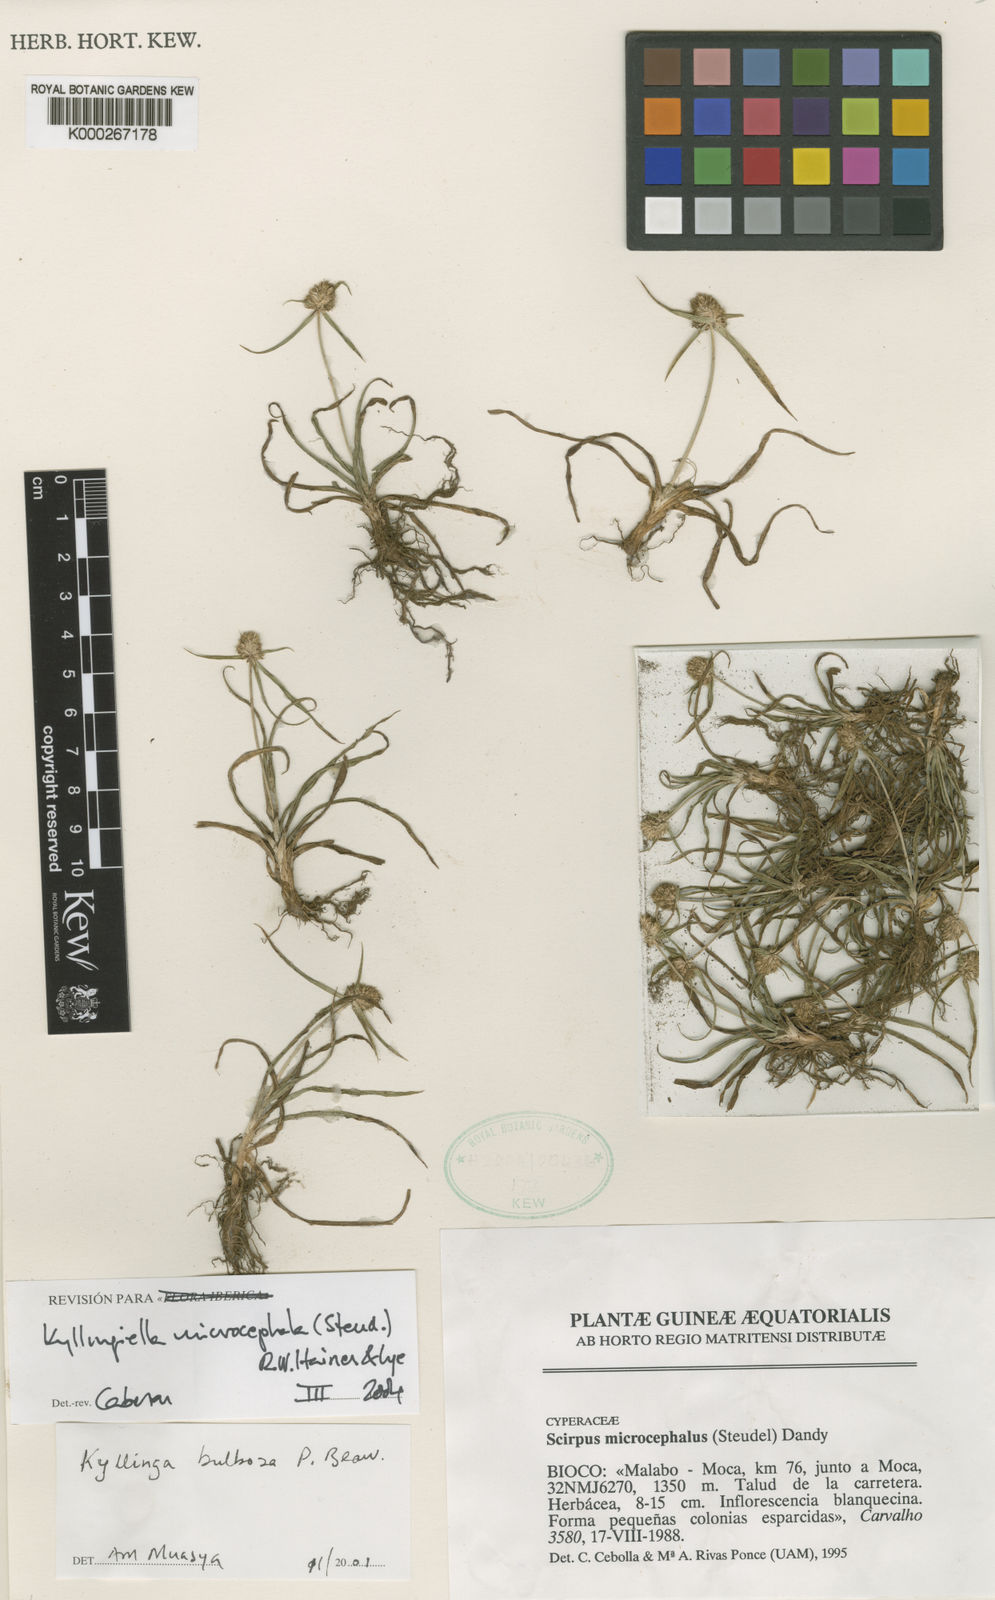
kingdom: Plantae
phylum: Tracheophyta
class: Liliopsida
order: Poales
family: Cyperaceae
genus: Cyperus
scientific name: Cyperus kyllingiella
